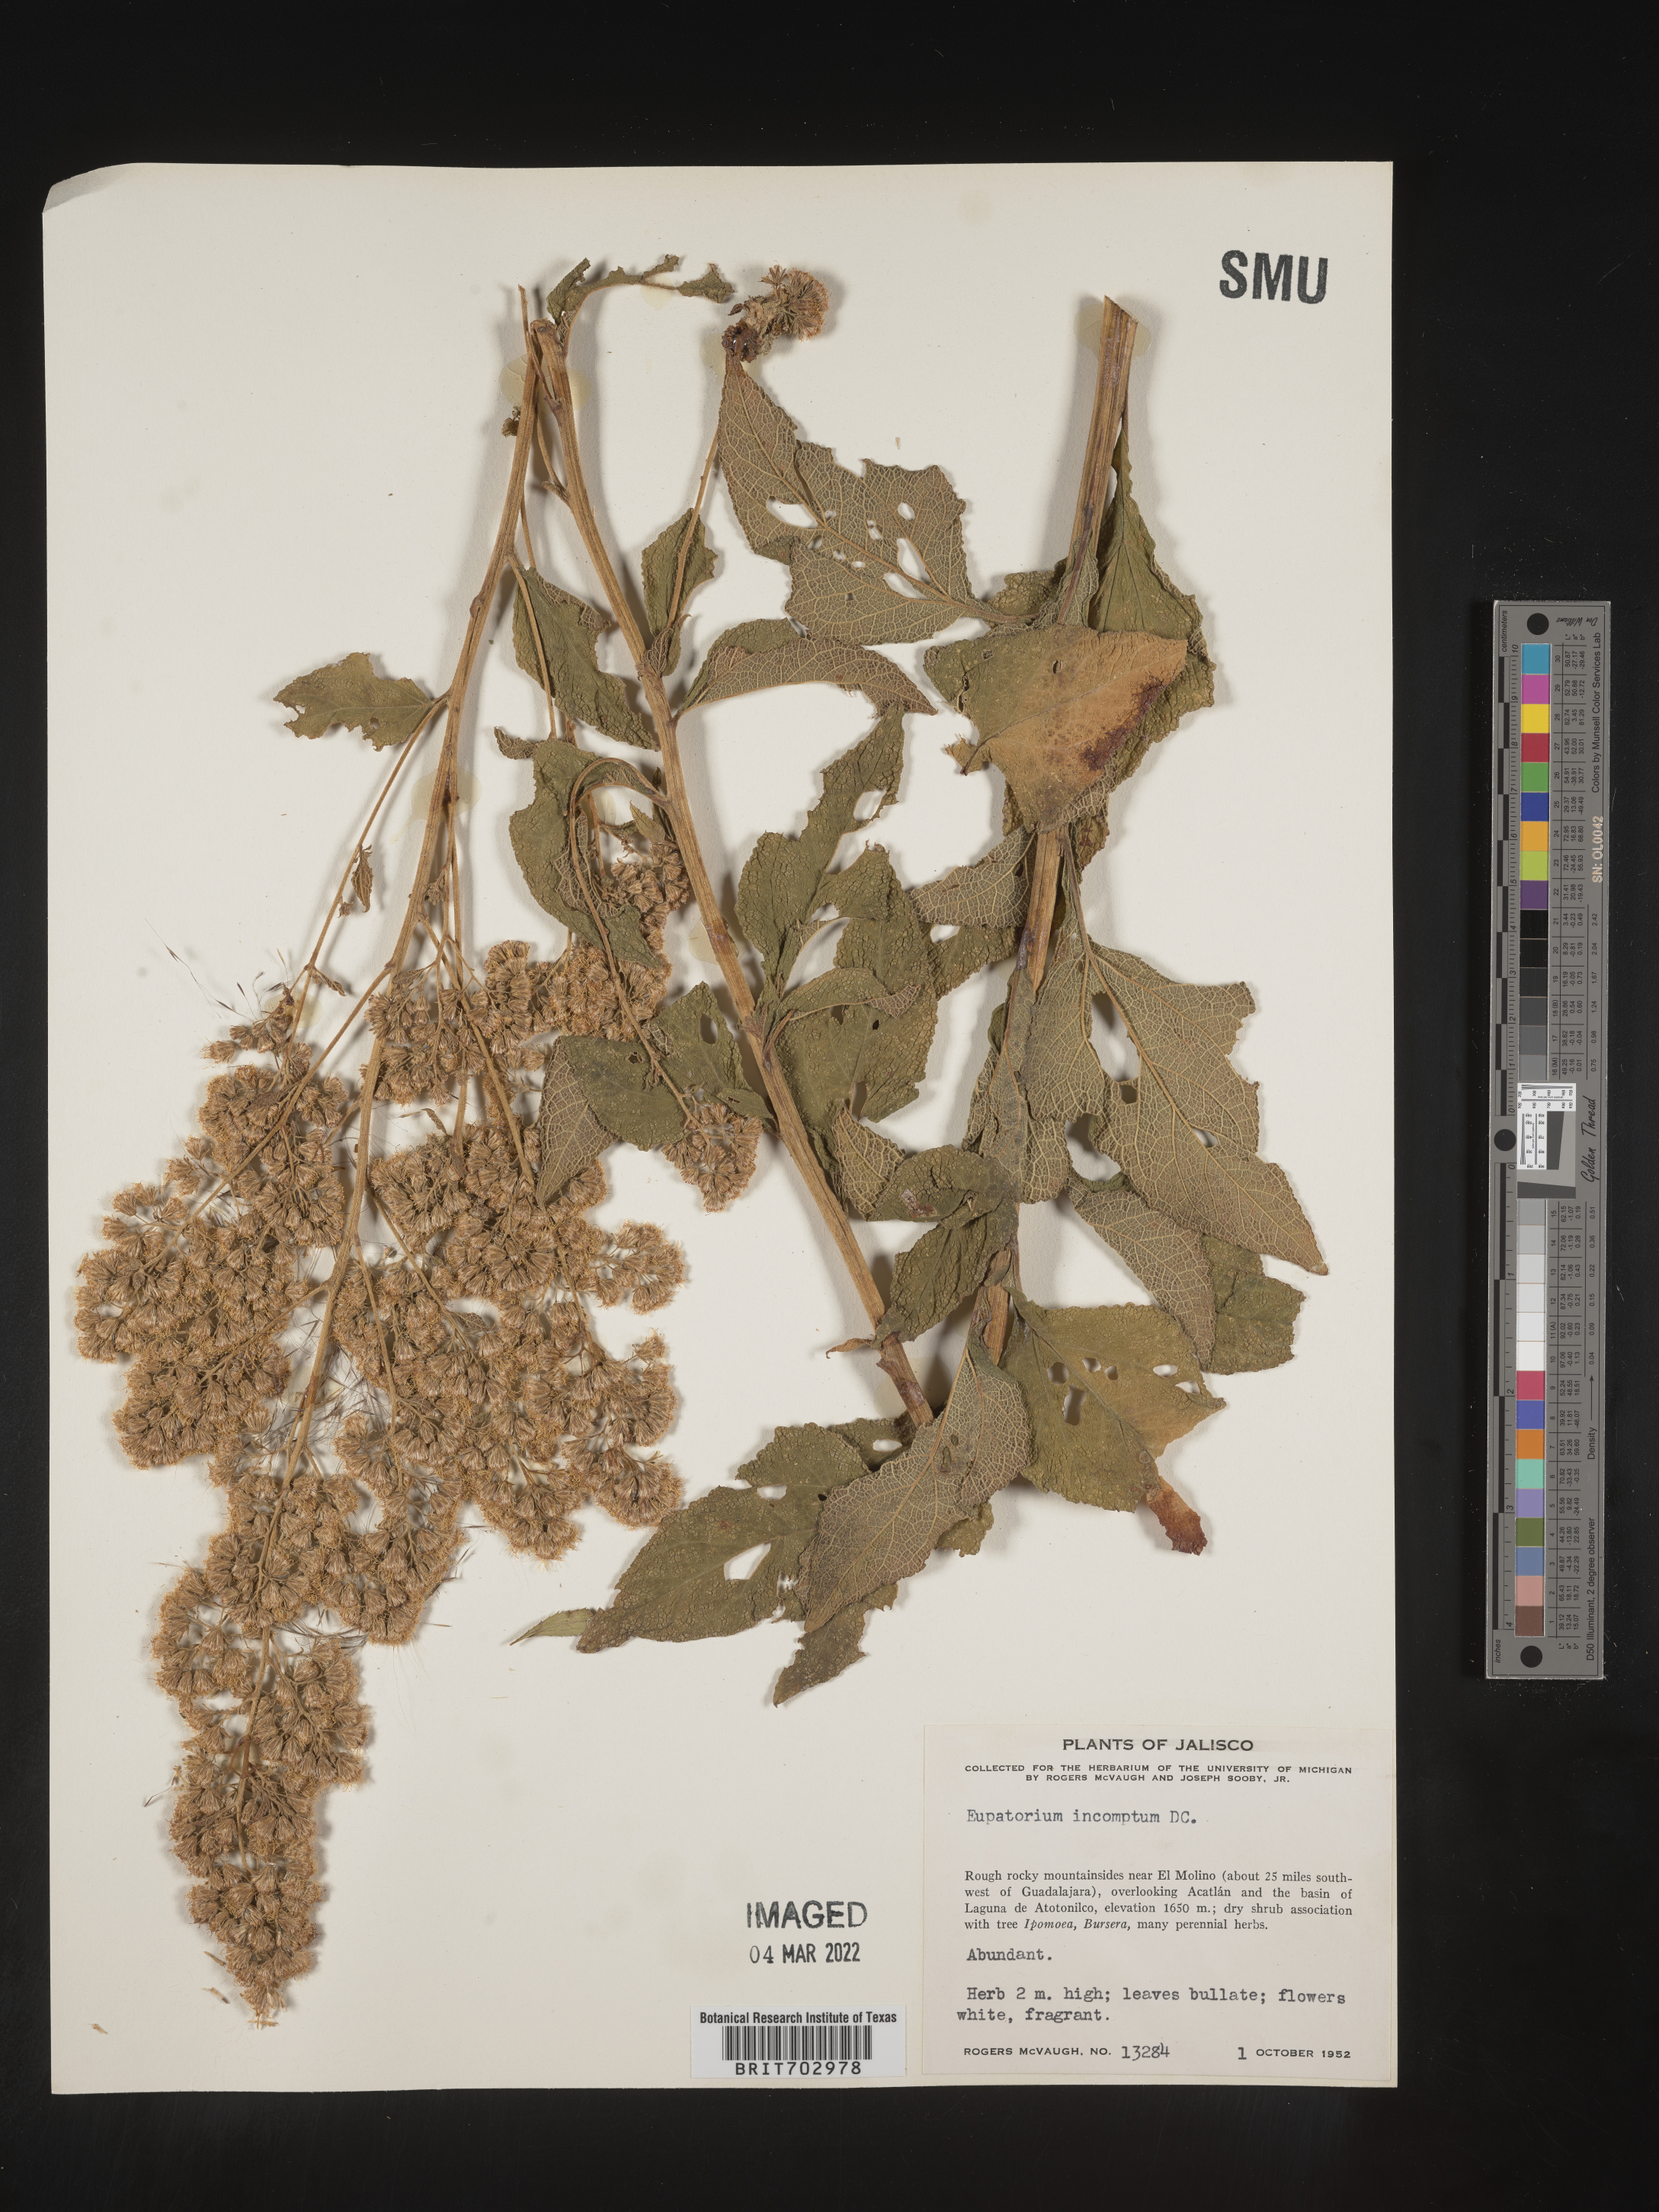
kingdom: Plantae
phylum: Tracheophyta
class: Magnoliopsida
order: Asterales
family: Asteraceae
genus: Eupatorium
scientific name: Eupatorium
